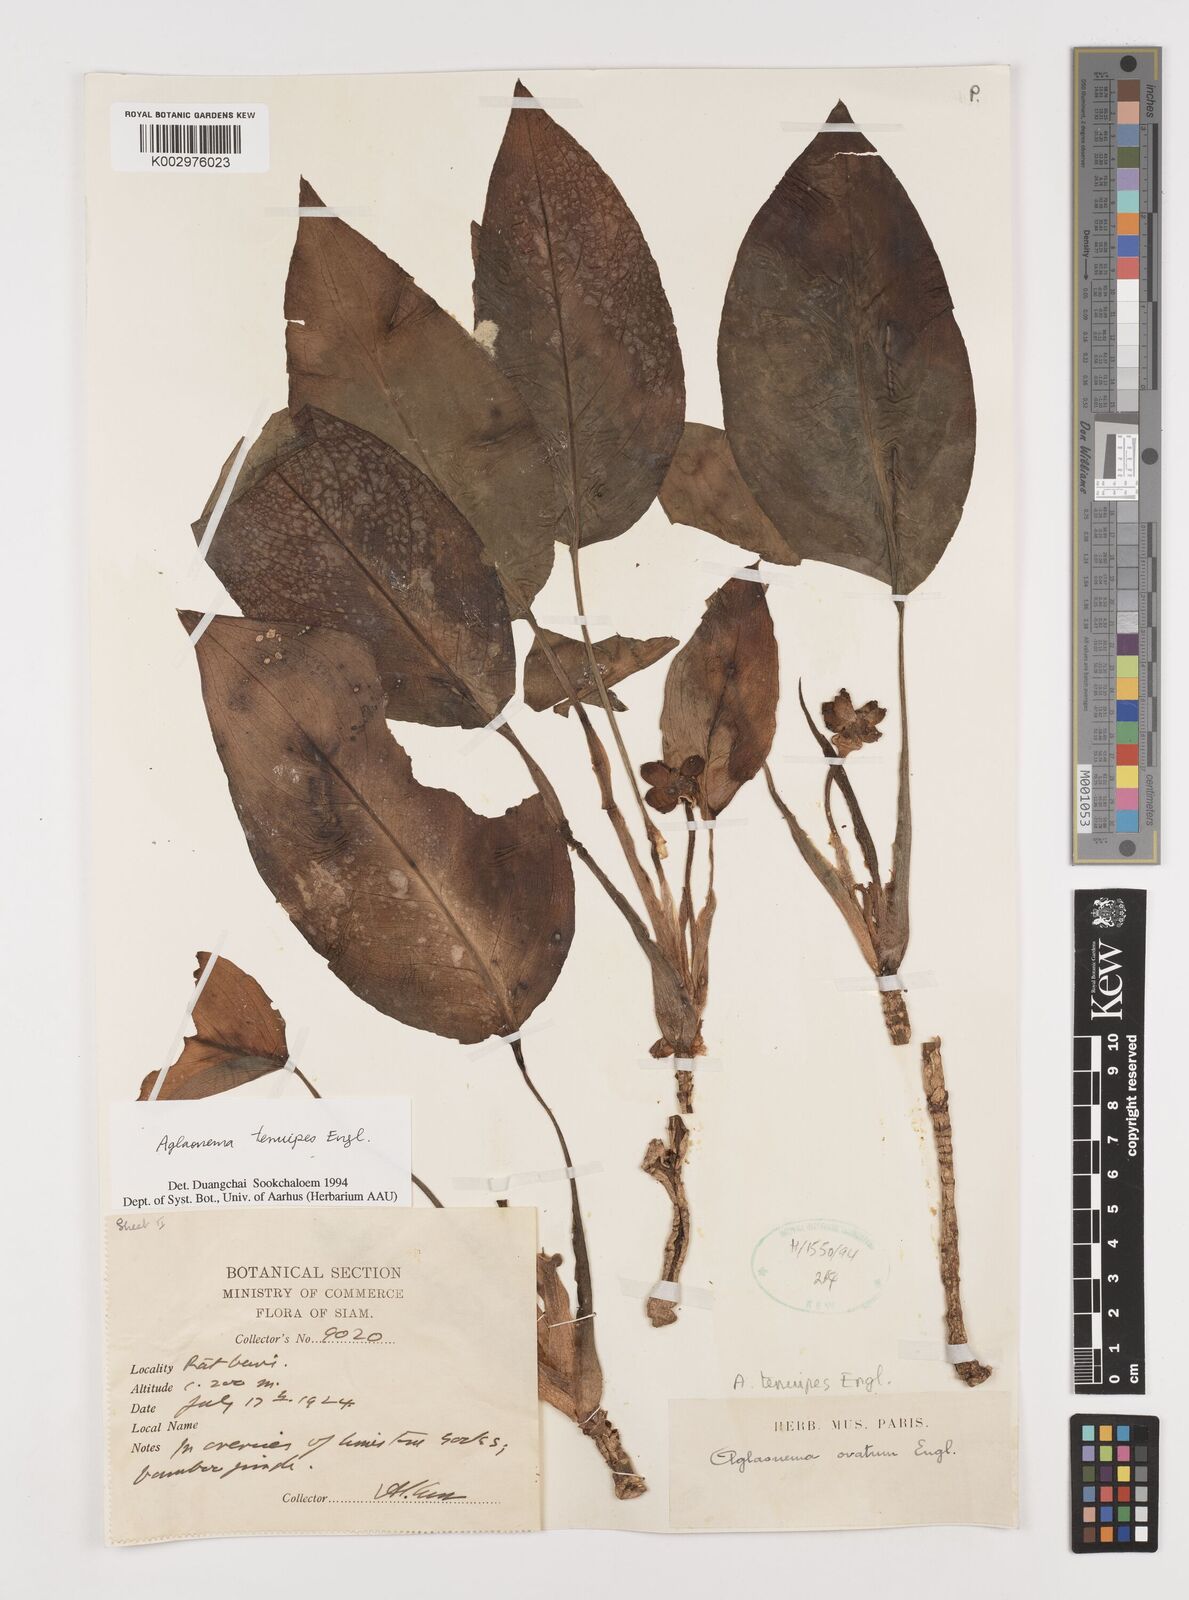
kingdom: Plantae
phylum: Tracheophyta
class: Liliopsida
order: Alismatales
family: Araceae
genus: Aglaonema
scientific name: Aglaonema simplex
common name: Malayan-sword
